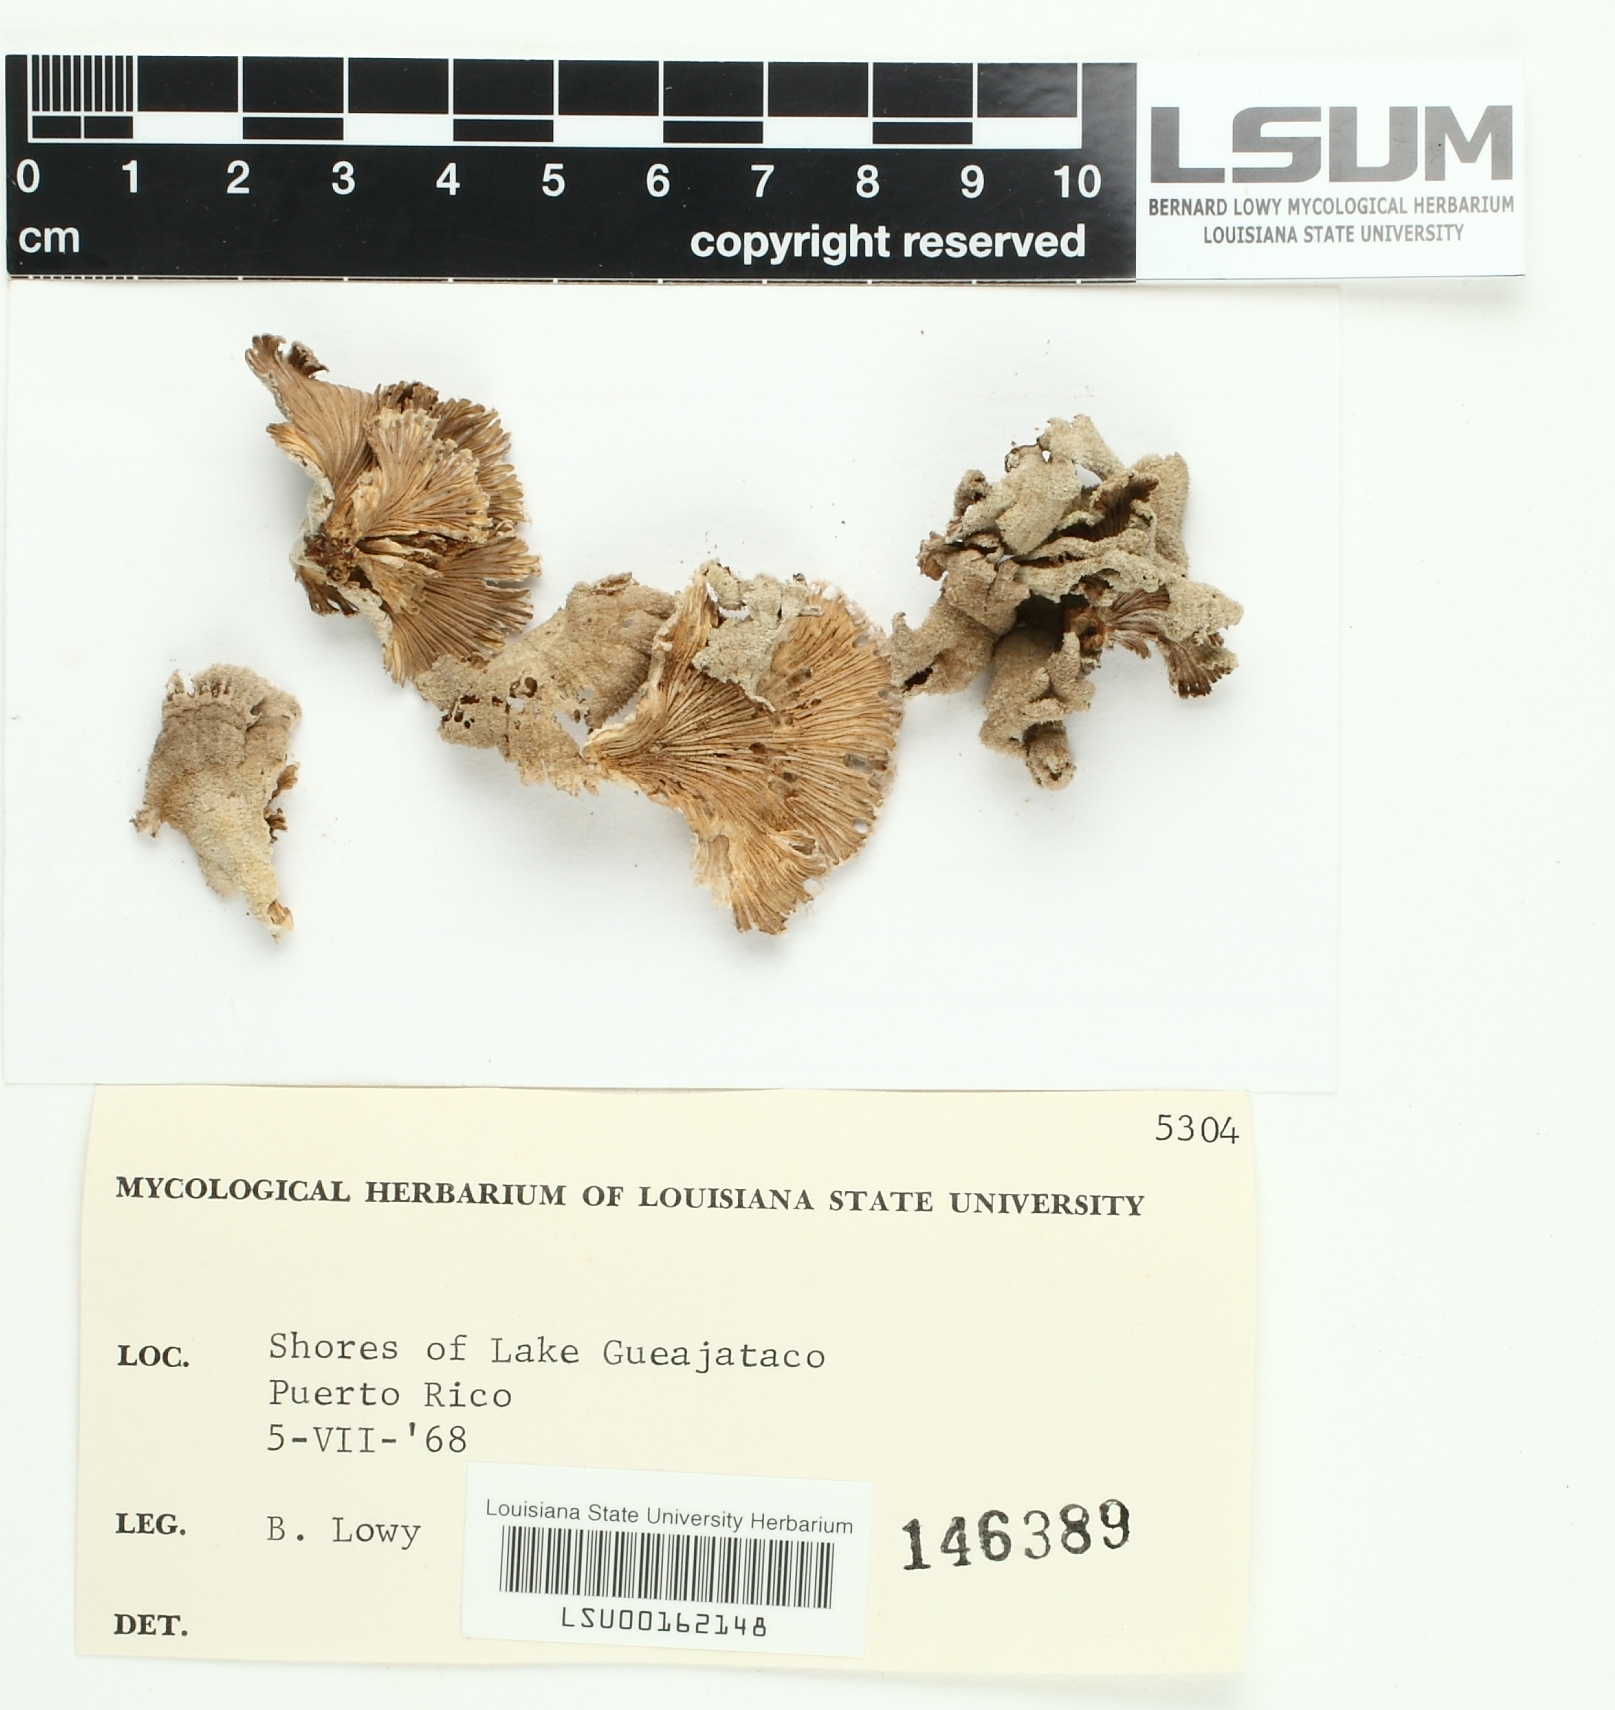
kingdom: Fungi
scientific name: Fungi
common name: Fungi
